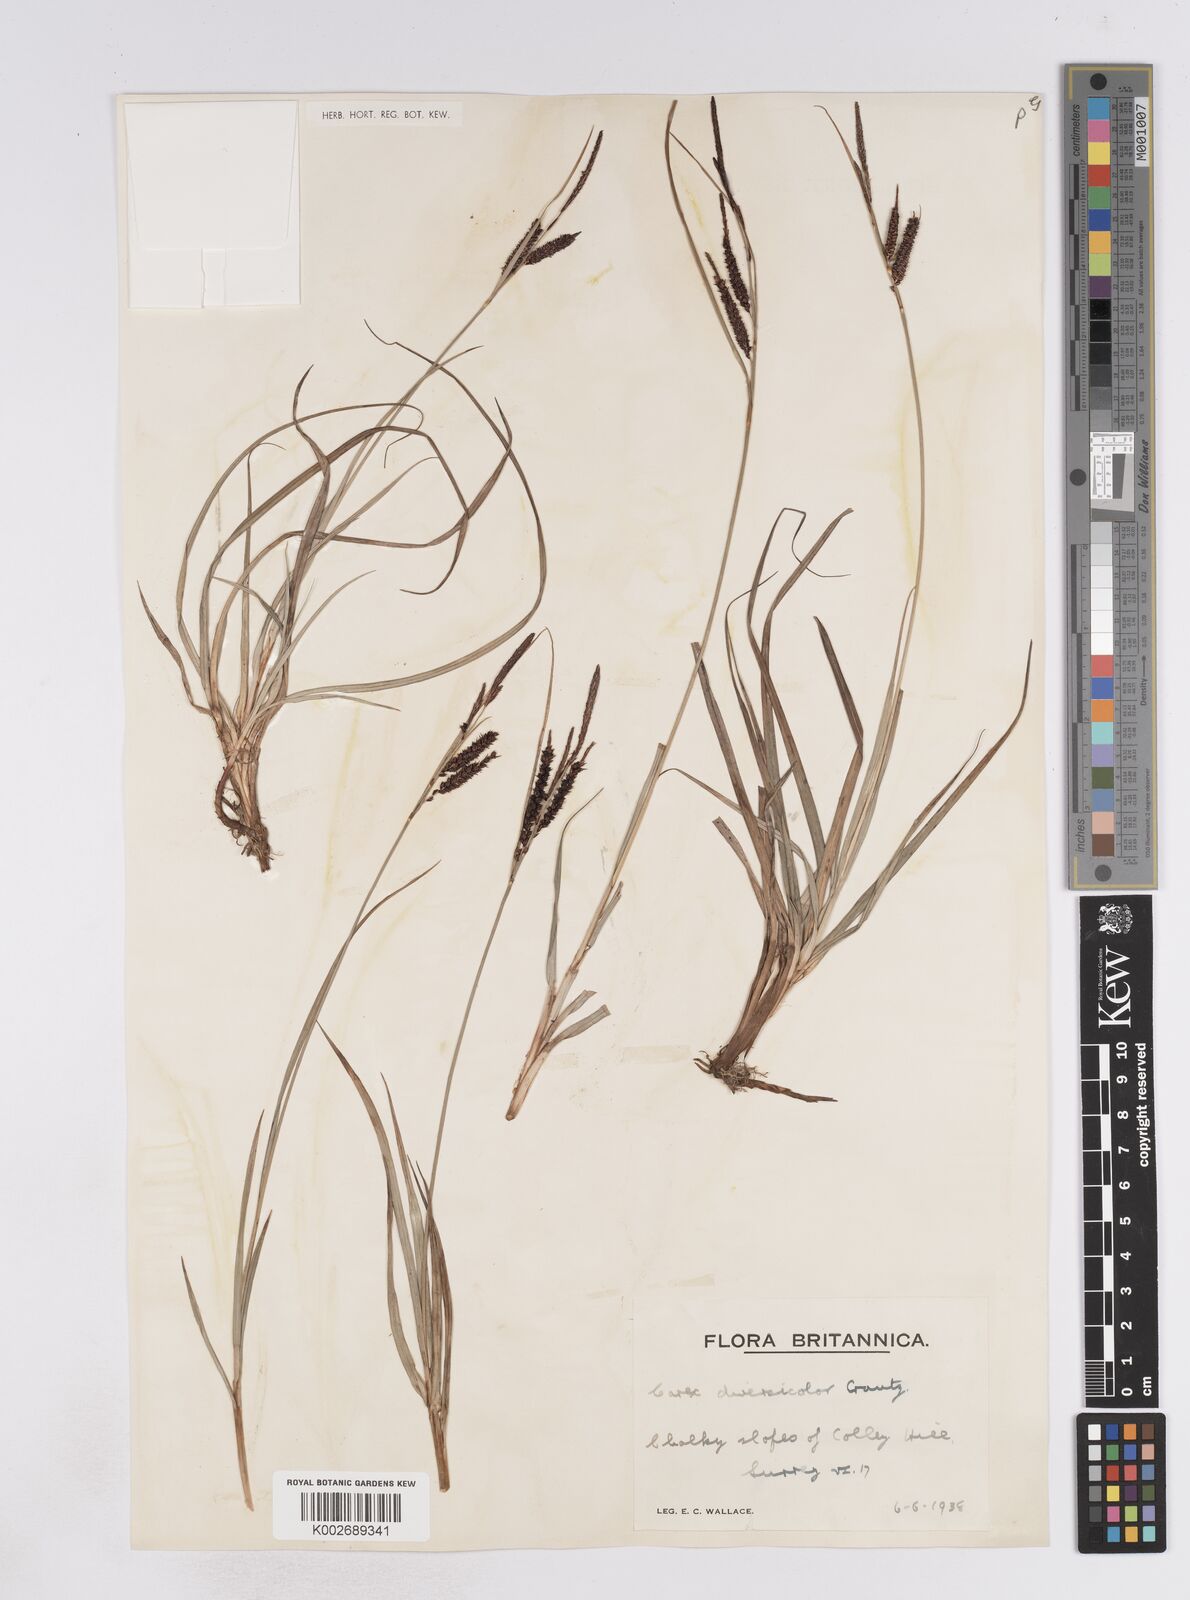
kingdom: Plantae
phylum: Tracheophyta
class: Liliopsida
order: Poales
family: Cyperaceae
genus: Carex
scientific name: Carex flacca
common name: Glaucous sedge
